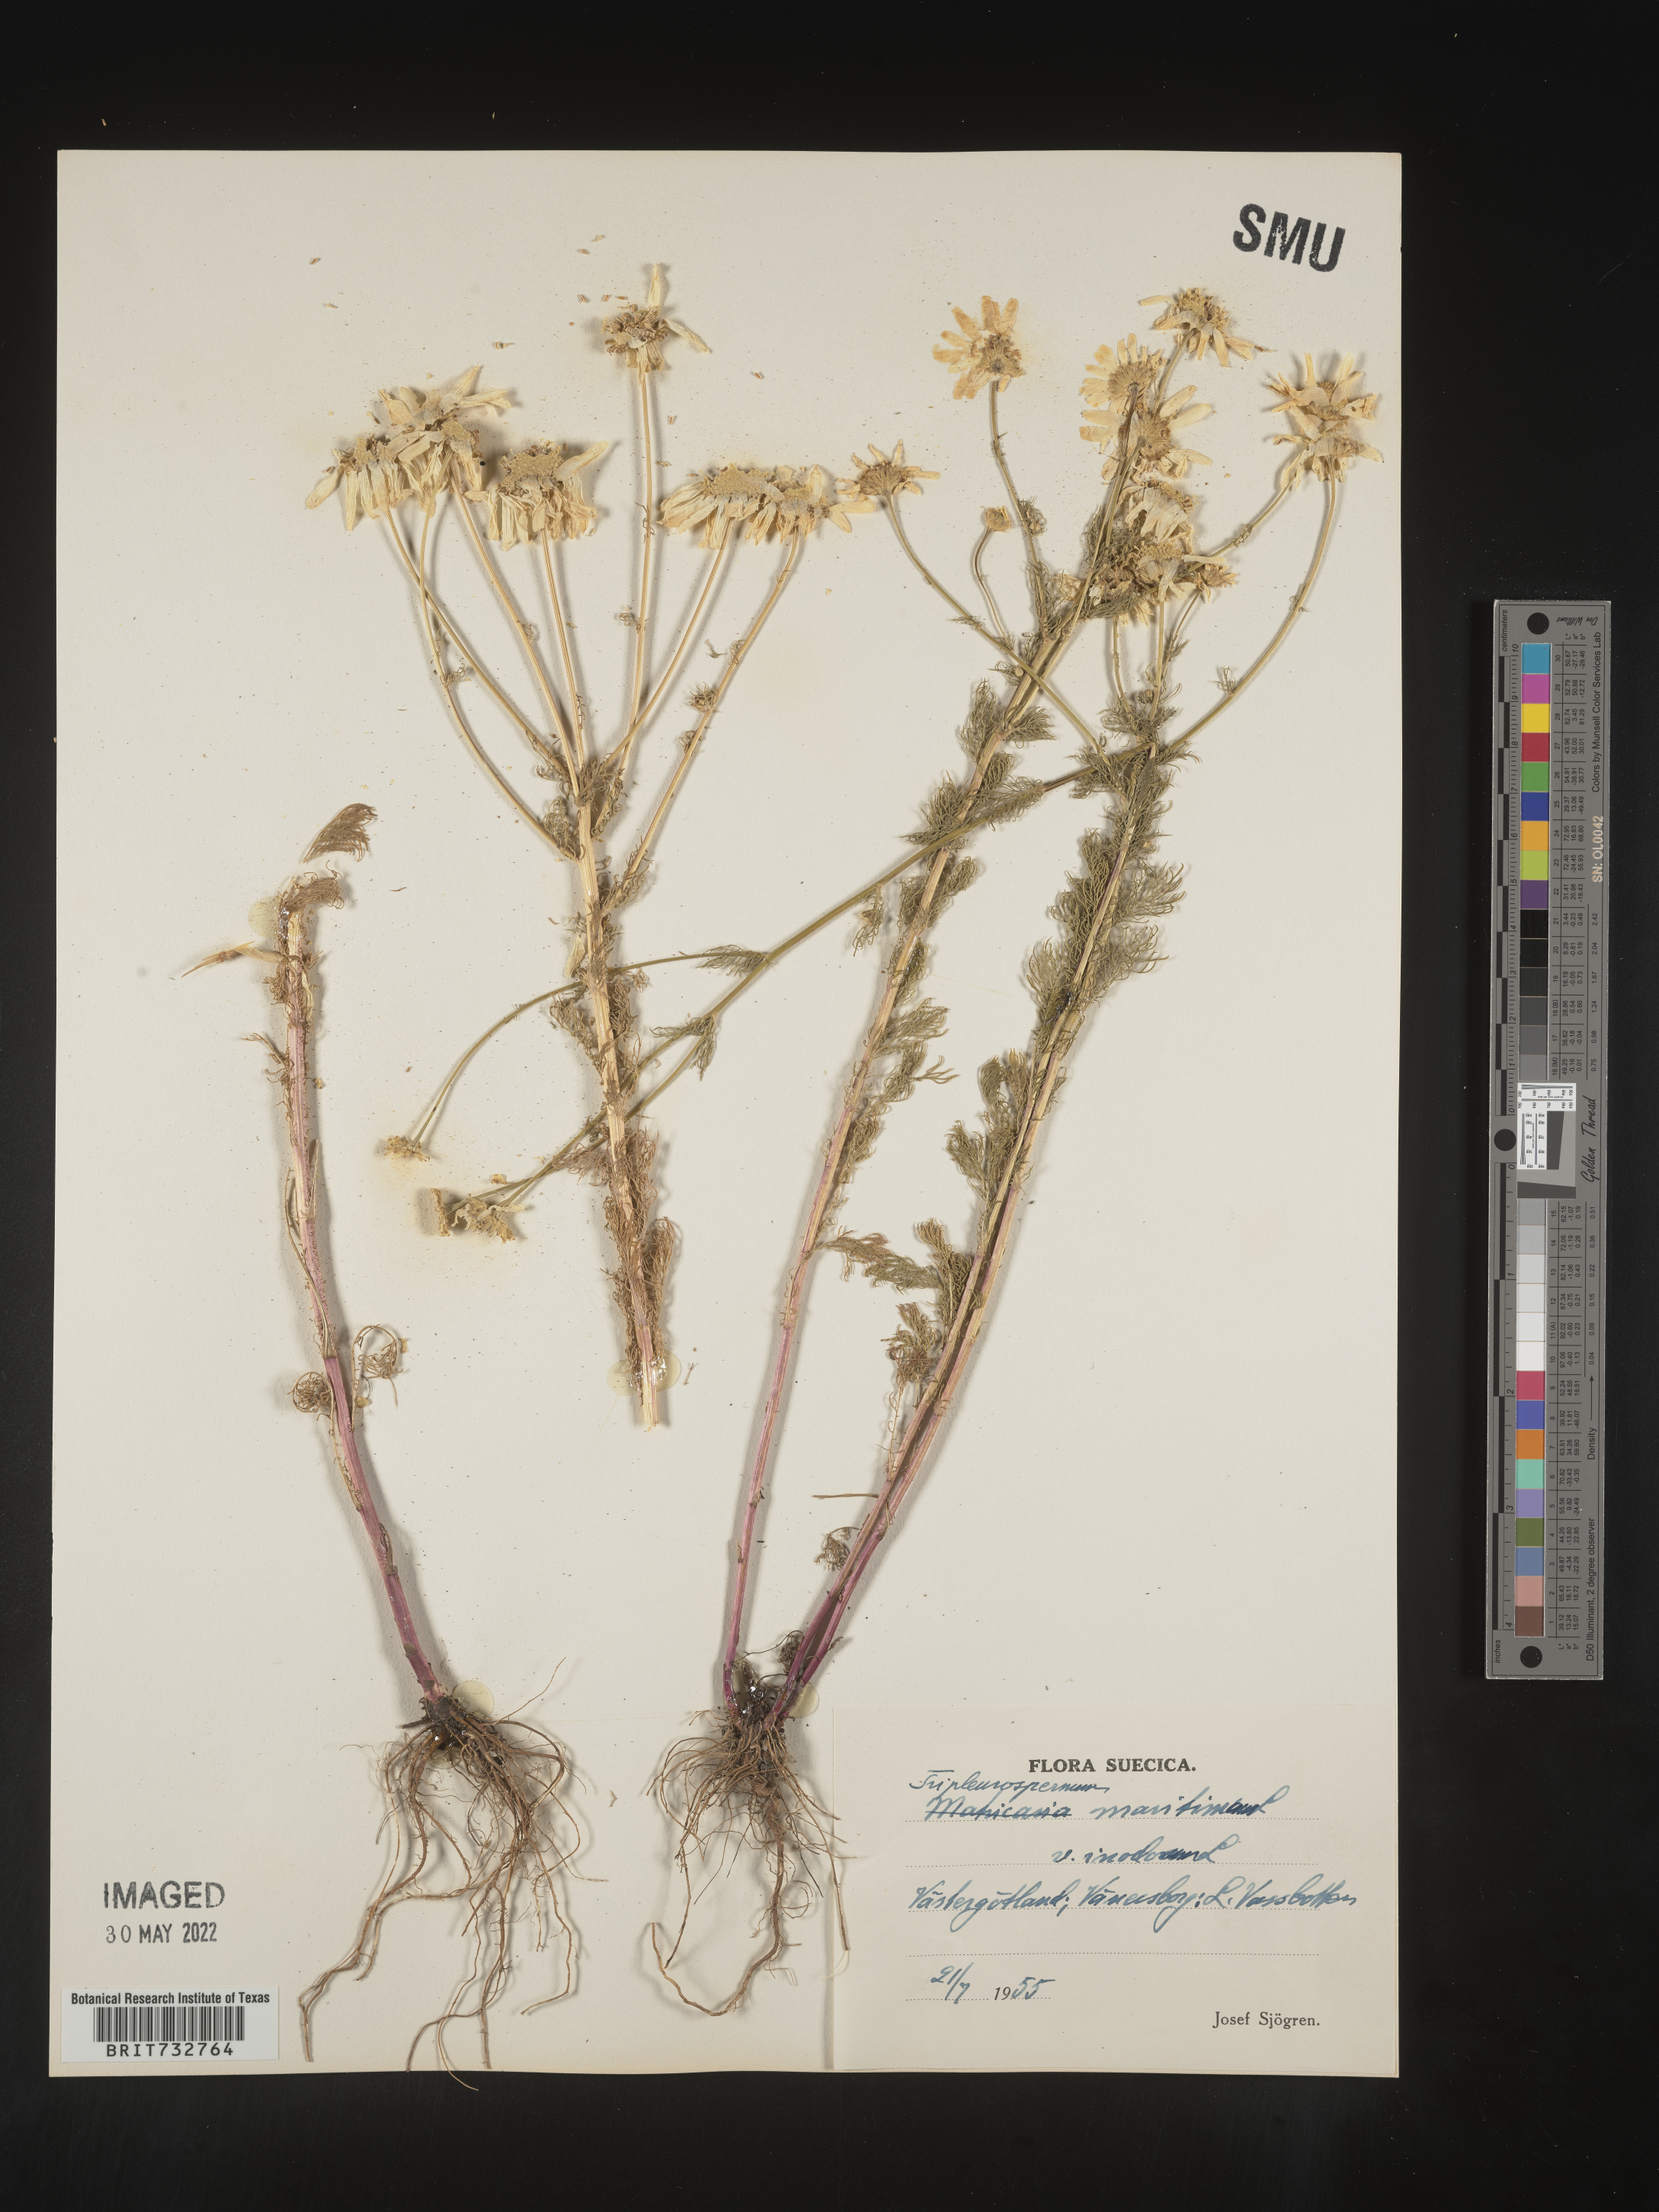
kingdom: Plantae
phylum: Tracheophyta
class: Magnoliopsida
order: Asterales
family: Asteraceae
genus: Matricaria
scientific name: Matricaria
